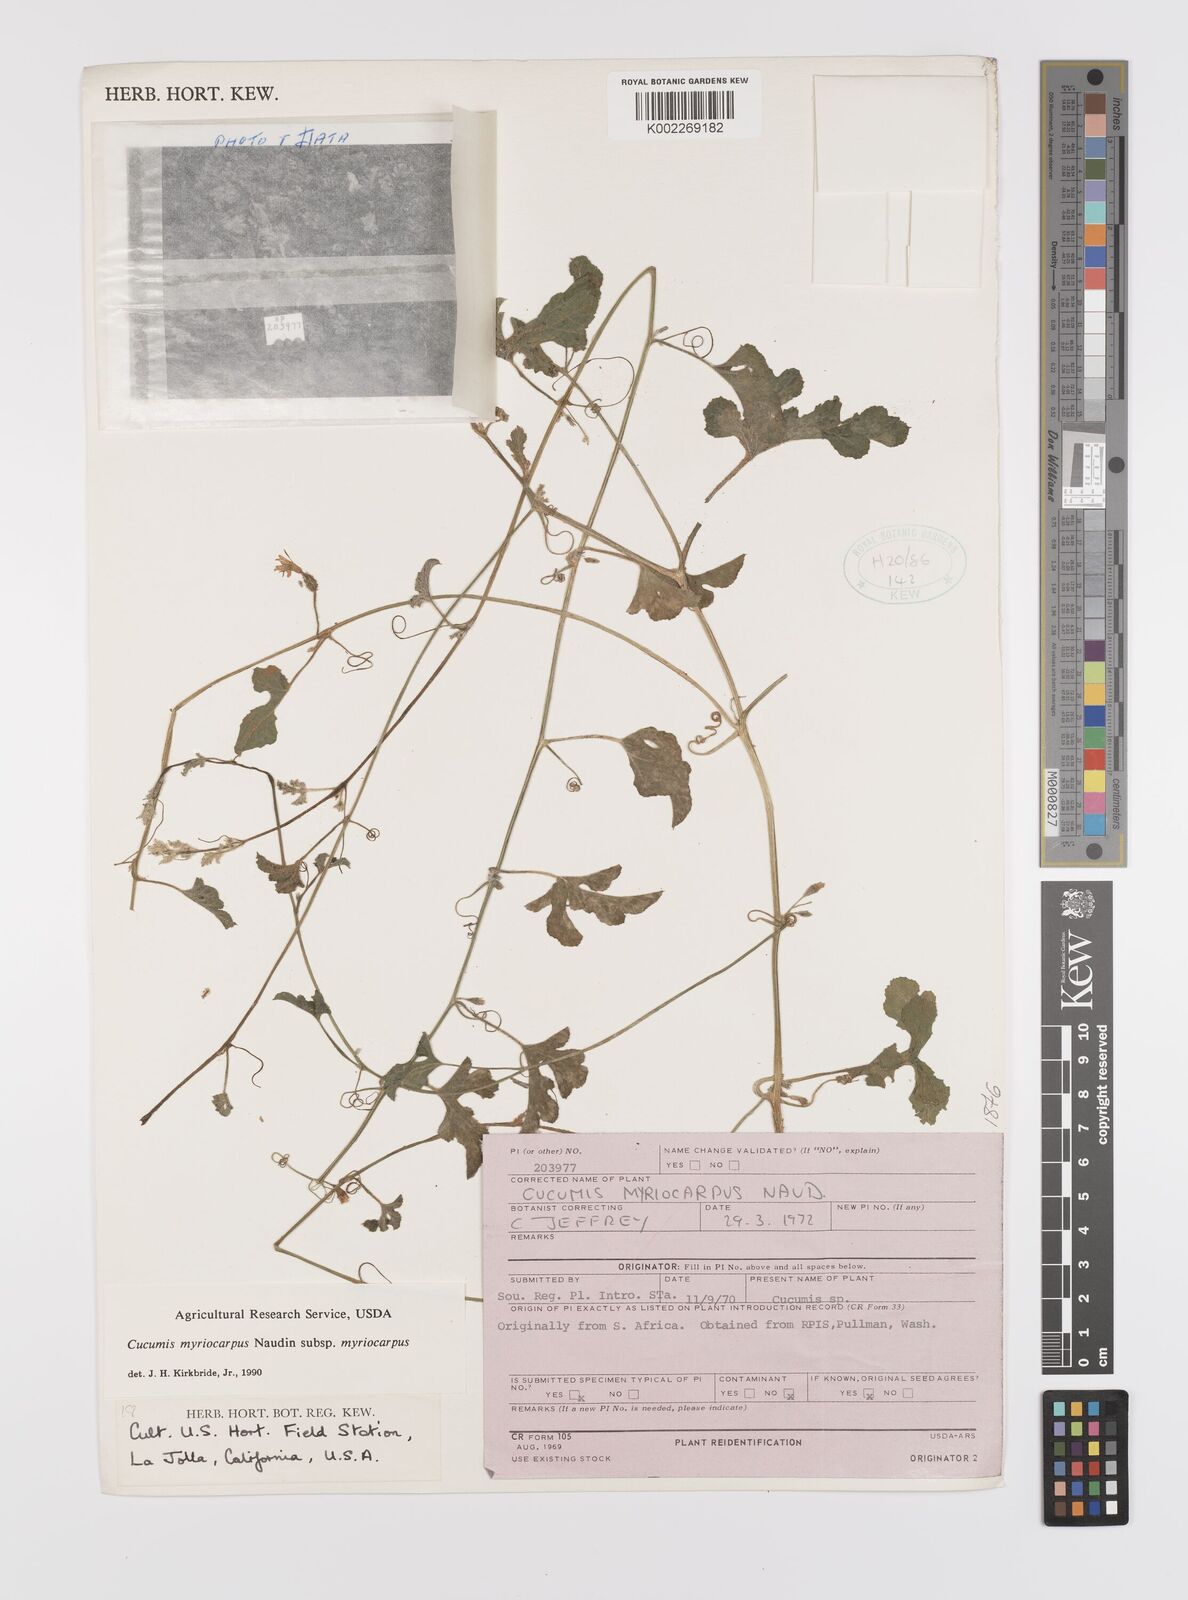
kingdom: Plantae
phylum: Tracheophyta
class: Magnoliopsida
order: Cucurbitales
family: Cucurbitaceae
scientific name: Cucurbitaceae
